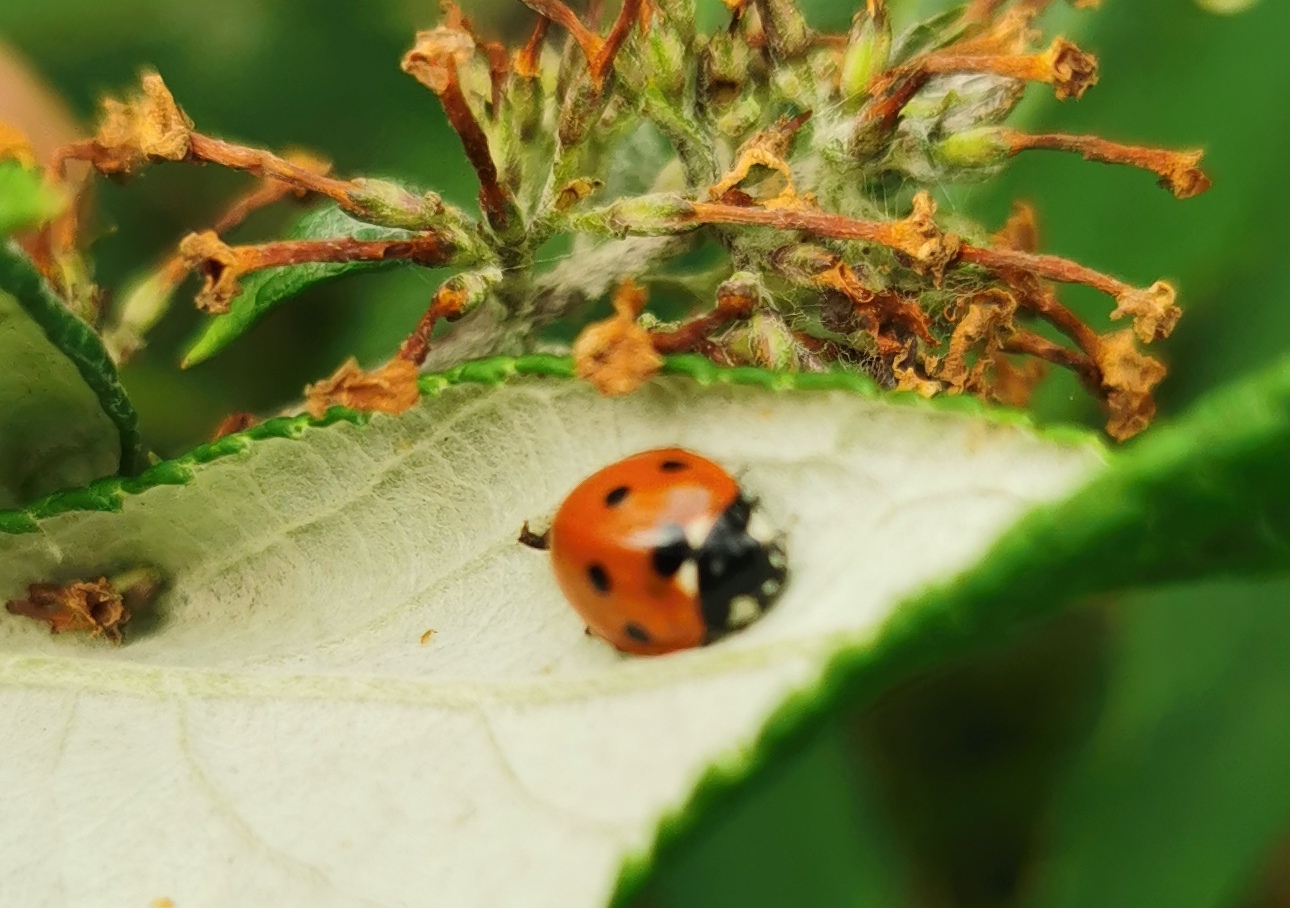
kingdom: Animalia
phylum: Arthropoda
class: Insecta
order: Coleoptera
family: Coccinellidae
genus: Coccinella
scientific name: Coccinella septempunctata
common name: Syvplettet mariehøne
